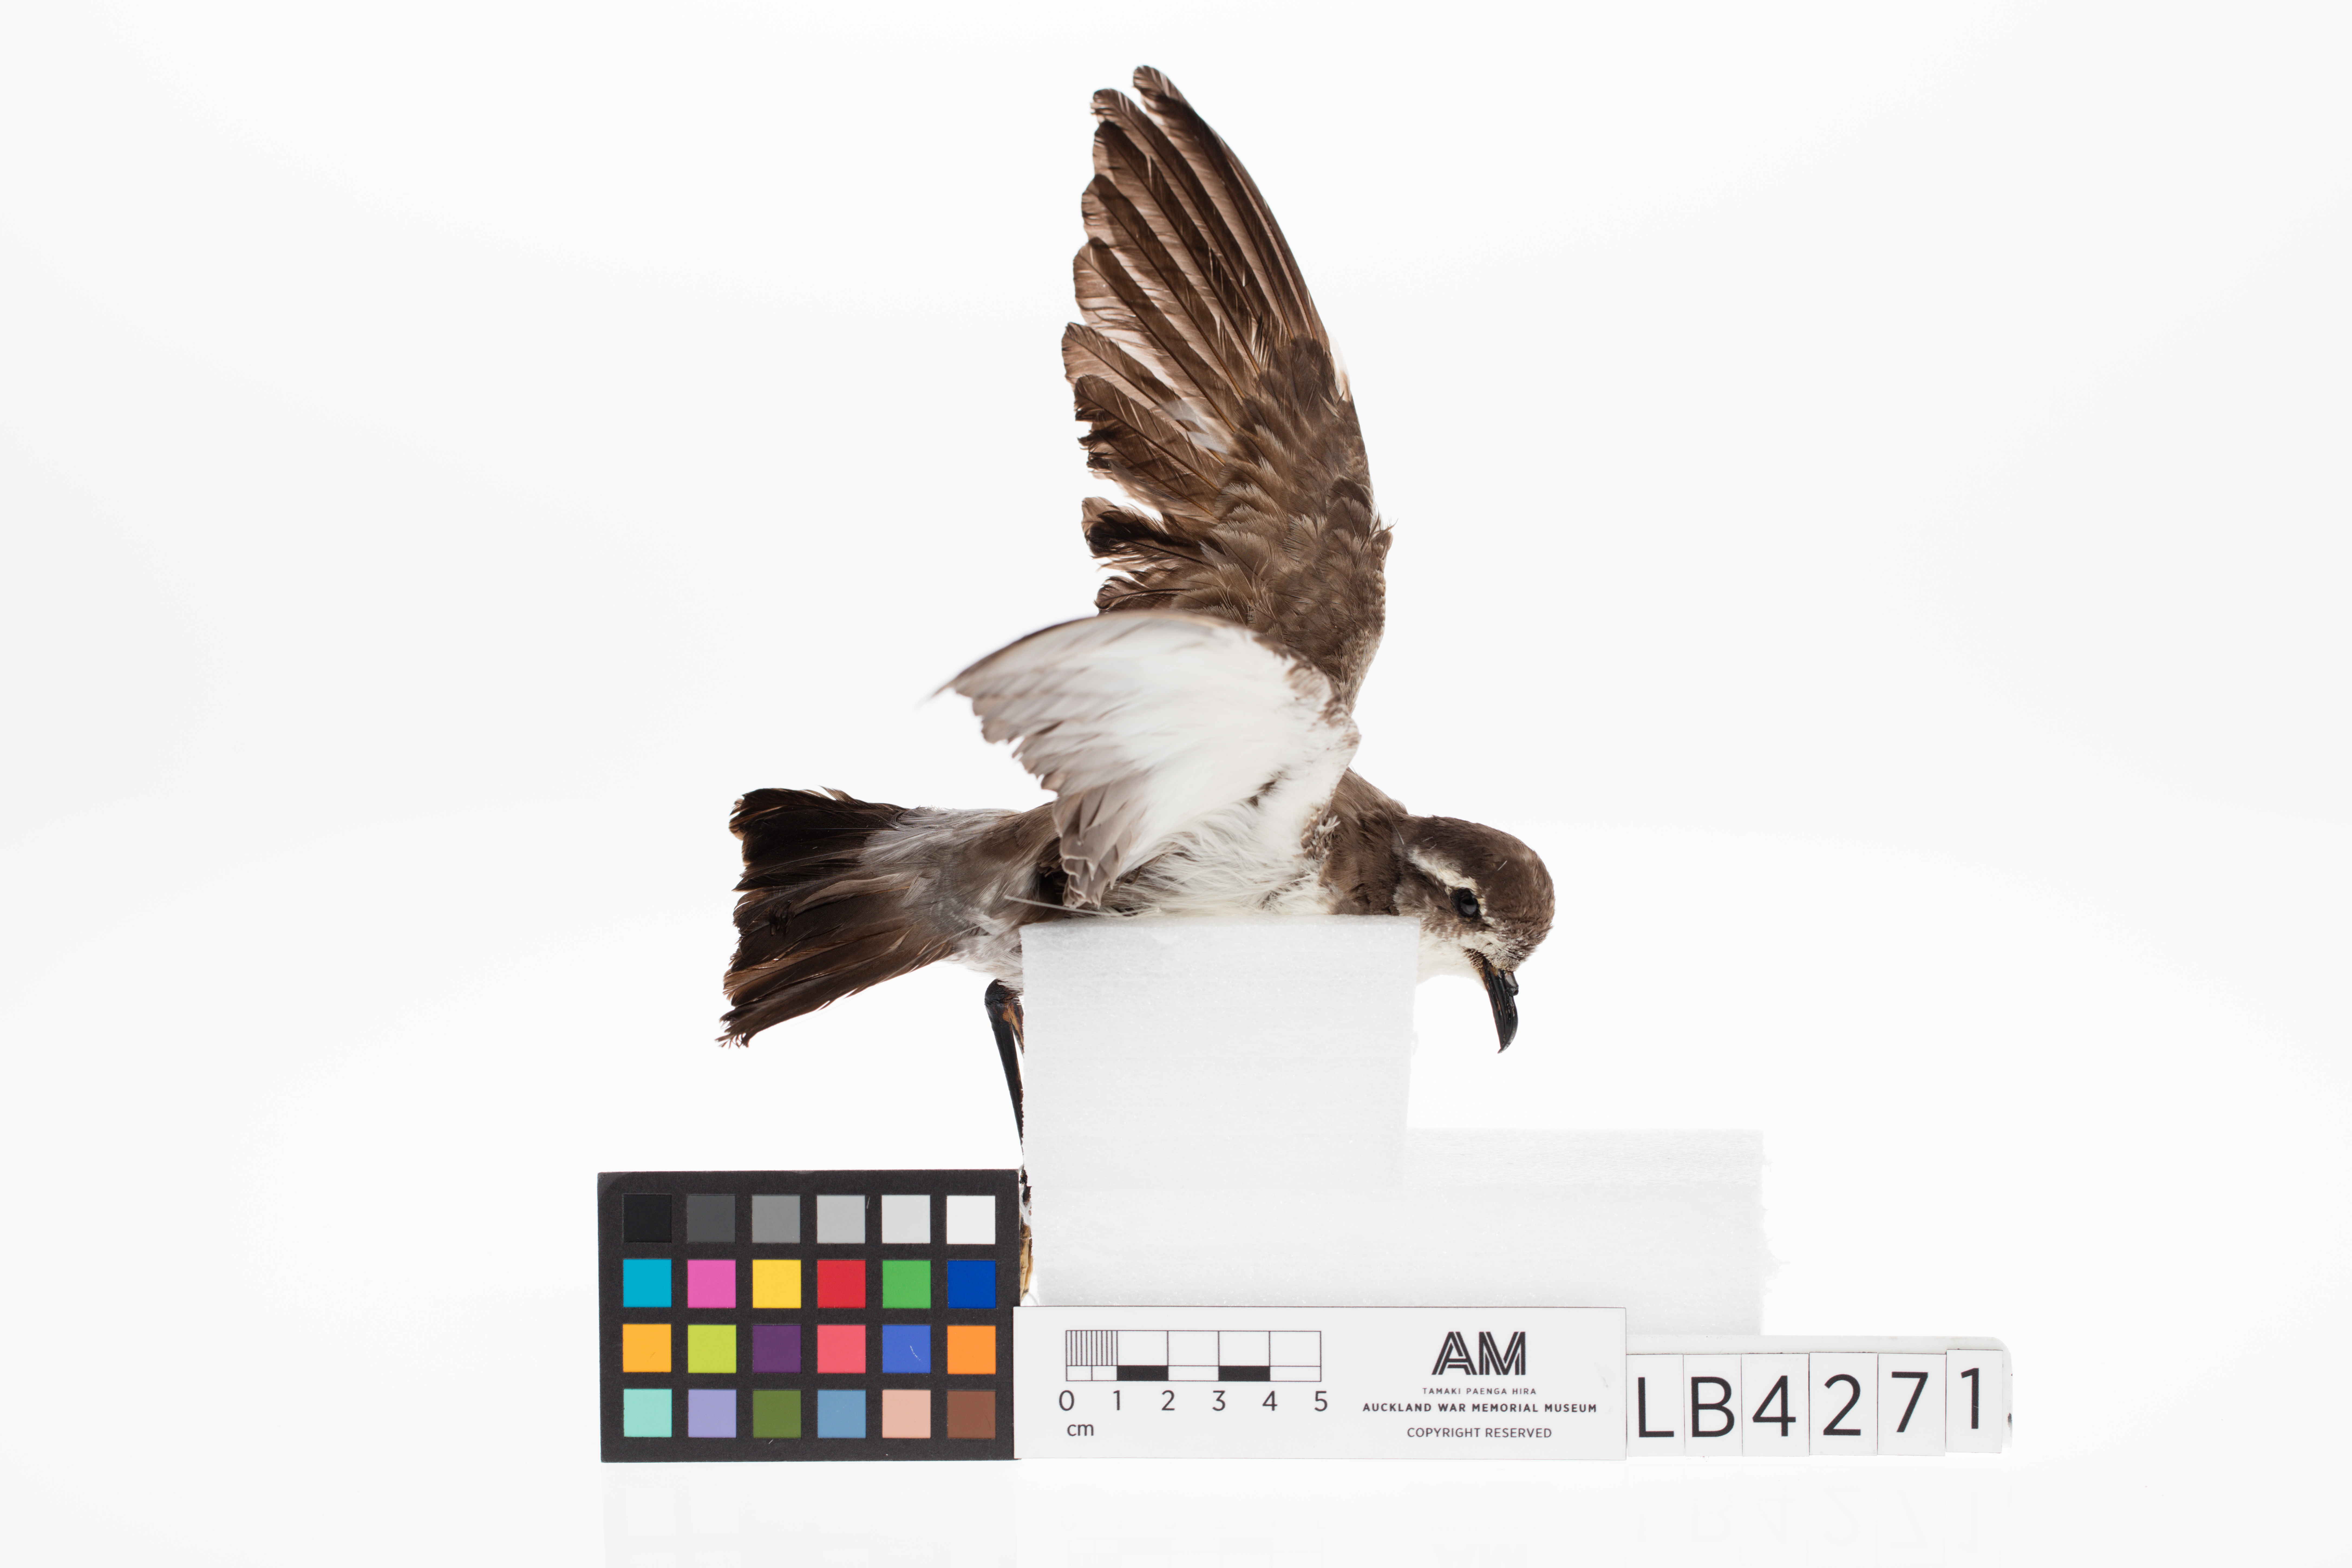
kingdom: Animalia
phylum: Chordata
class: Aves
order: Procellariiformes
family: Hydrobatidae
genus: Pelagodroma
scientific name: Pelagodroma marina
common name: White-faced storm-petrel
